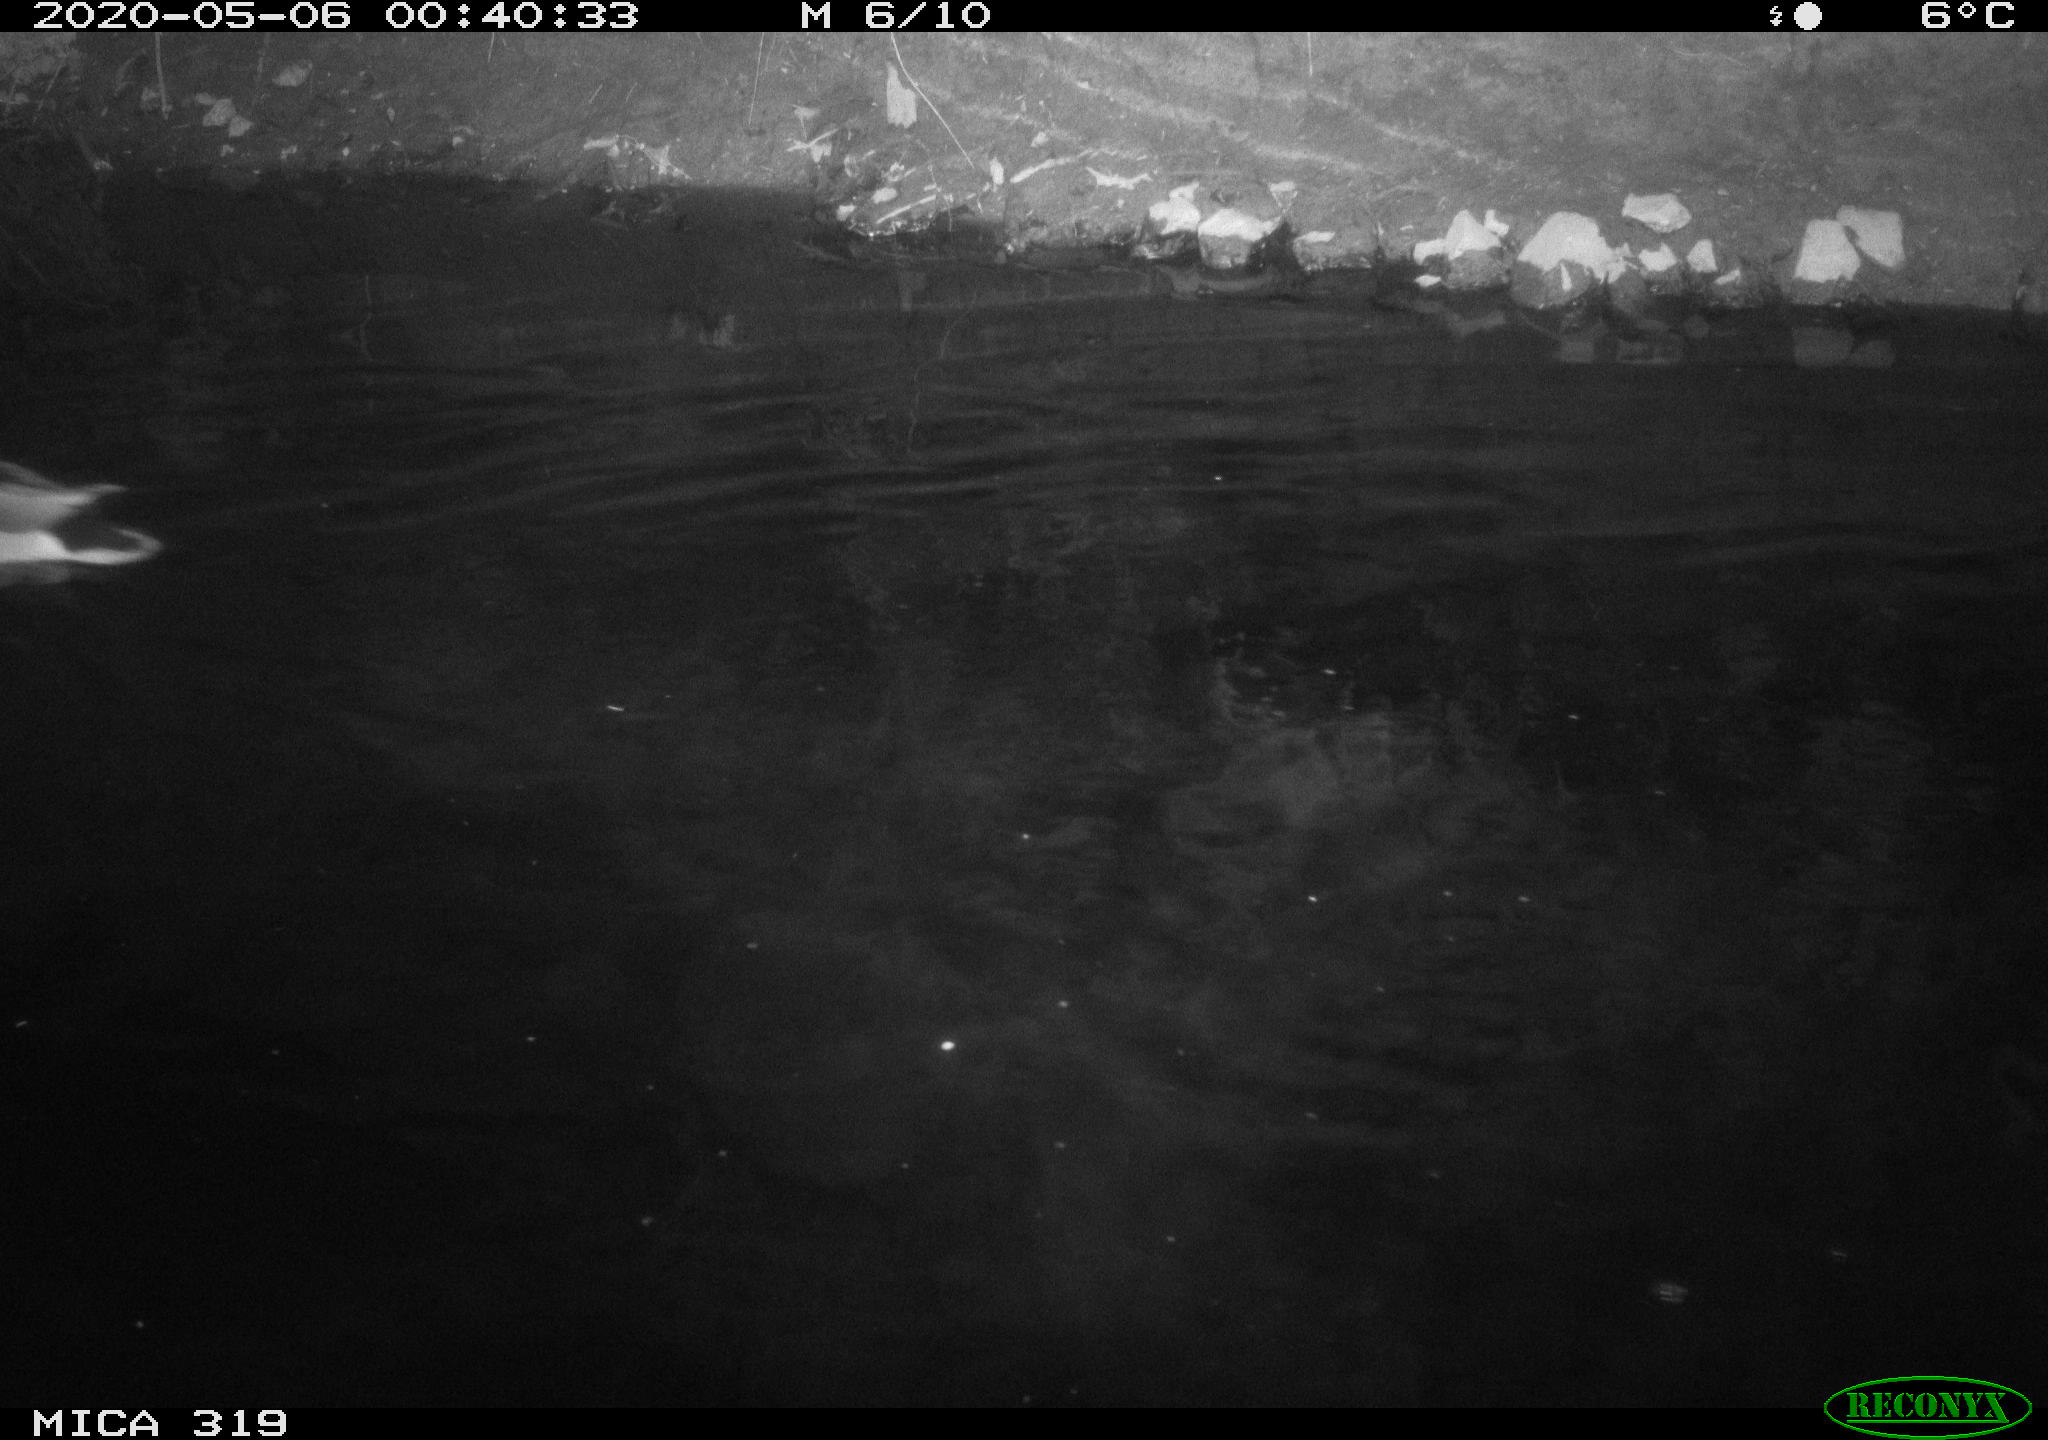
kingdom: Animalia
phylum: Chordata
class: Aves
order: Anseriformes
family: Anatidae
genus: Anas
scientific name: Anas platyrhynchos
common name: Mallard
